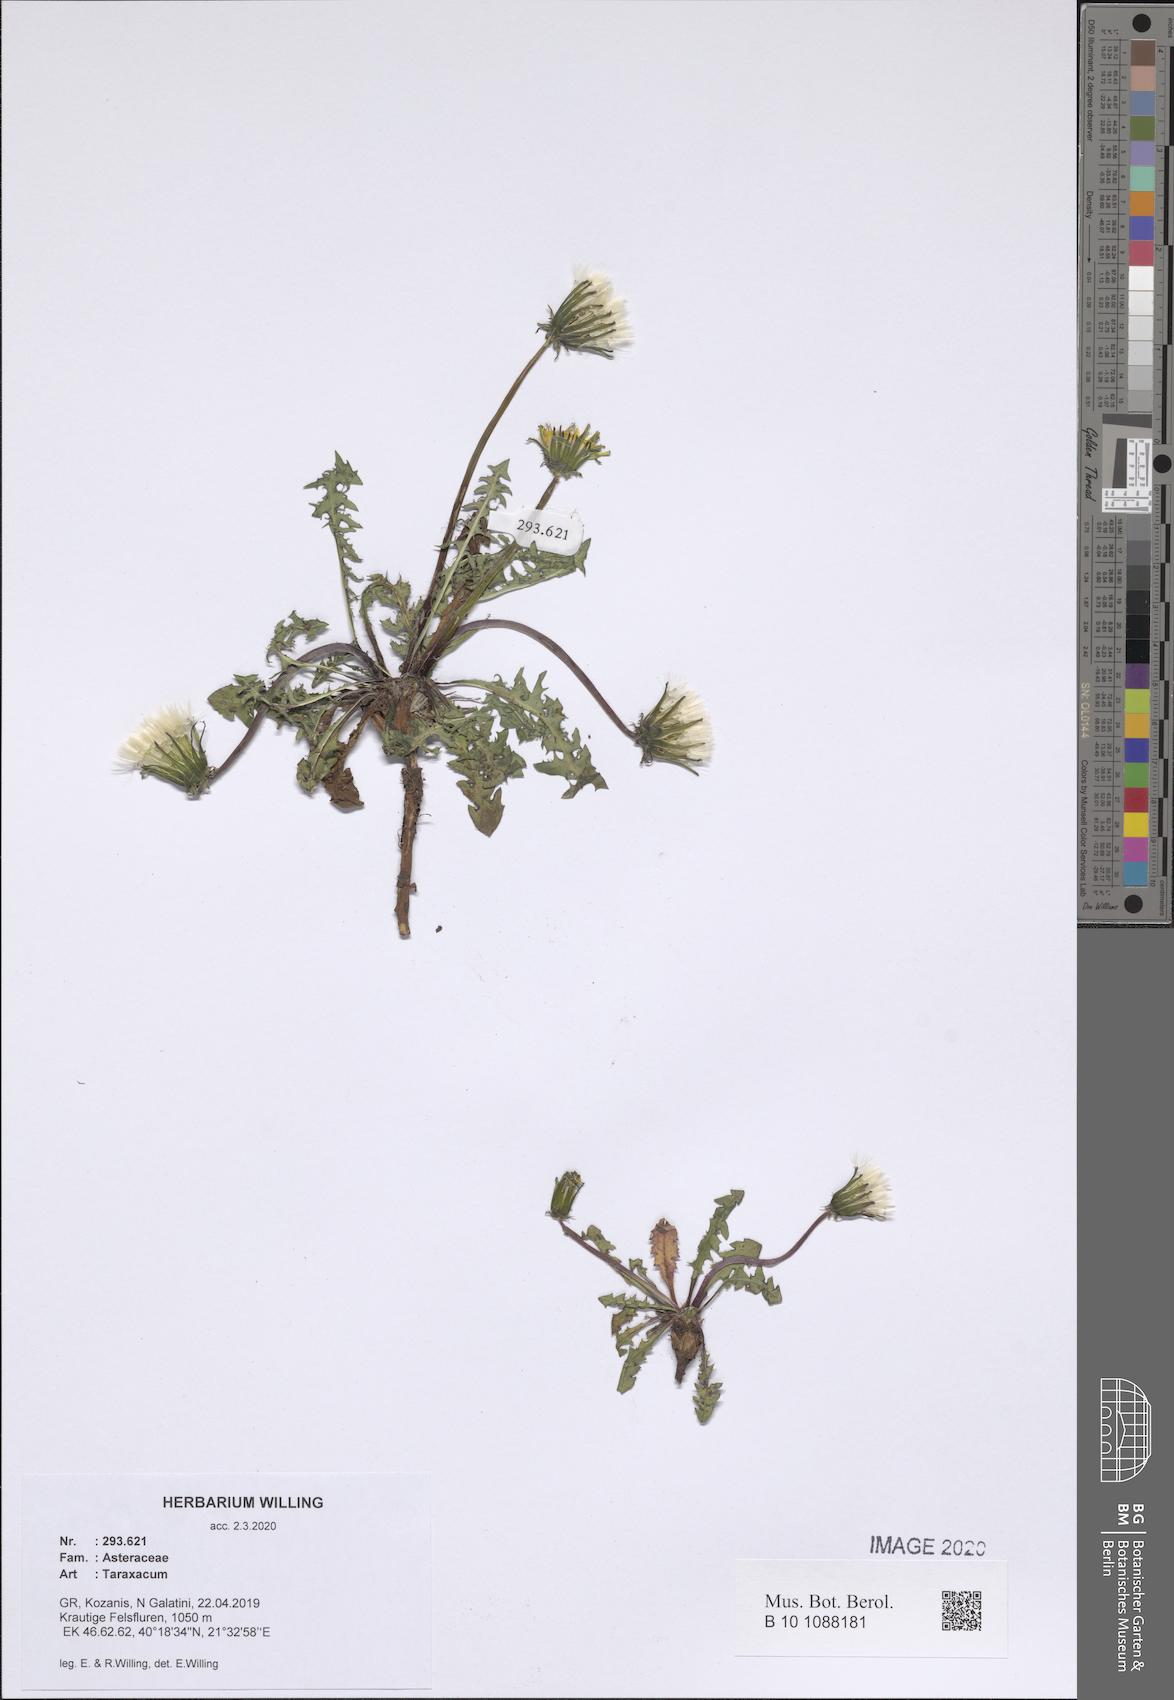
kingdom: Plantae
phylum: Tracheophyta
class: Magnoliopsida
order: Asterales
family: Asteraceae
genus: Taraxacum
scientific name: Taraxacum
